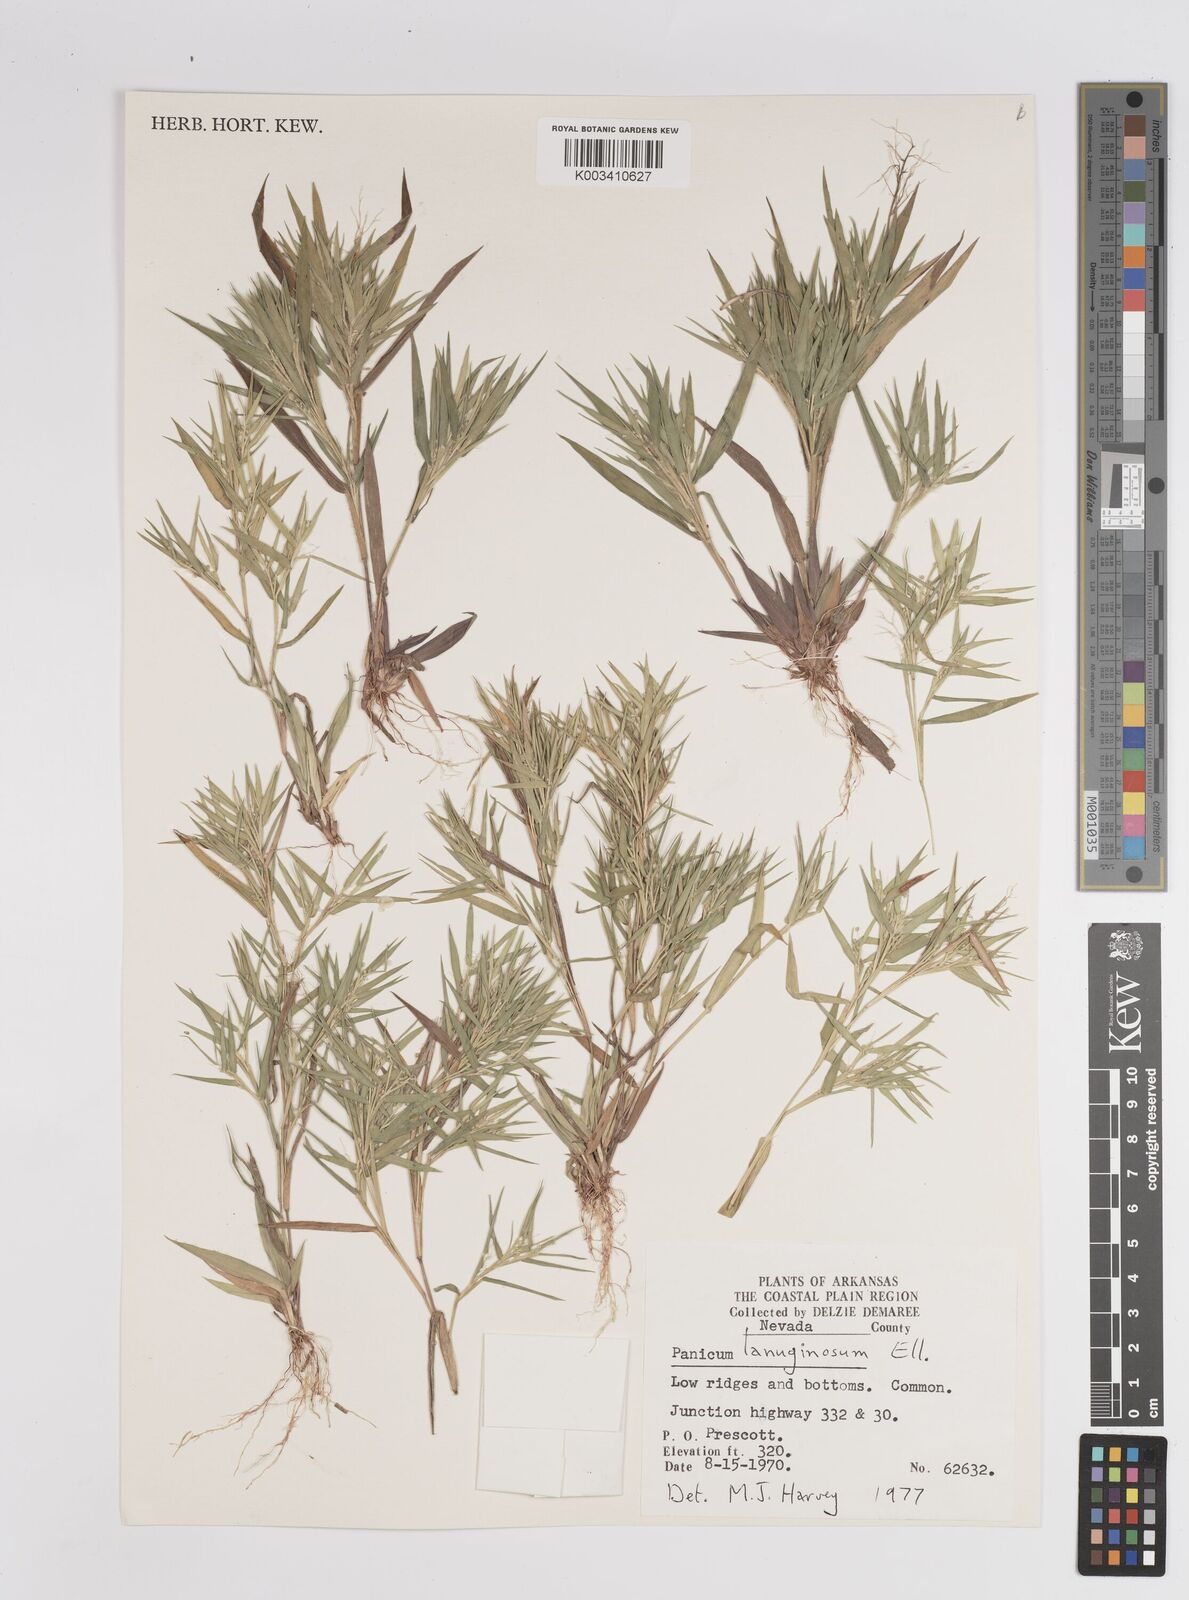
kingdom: Plantae
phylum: Tracheophyta
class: Liliopsida
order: Poales
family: Poaceae
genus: Dichanthelium
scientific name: Dichanthelium lanuginosum
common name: Woolly panicgrass
